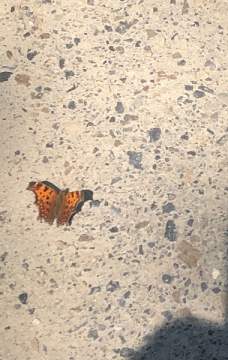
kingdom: Animalia
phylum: Arthropoda
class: Insecta
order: Lepidoptera
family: Nymphalidae
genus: Polygonia
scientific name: Polygonia comma
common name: Eastern Comma
